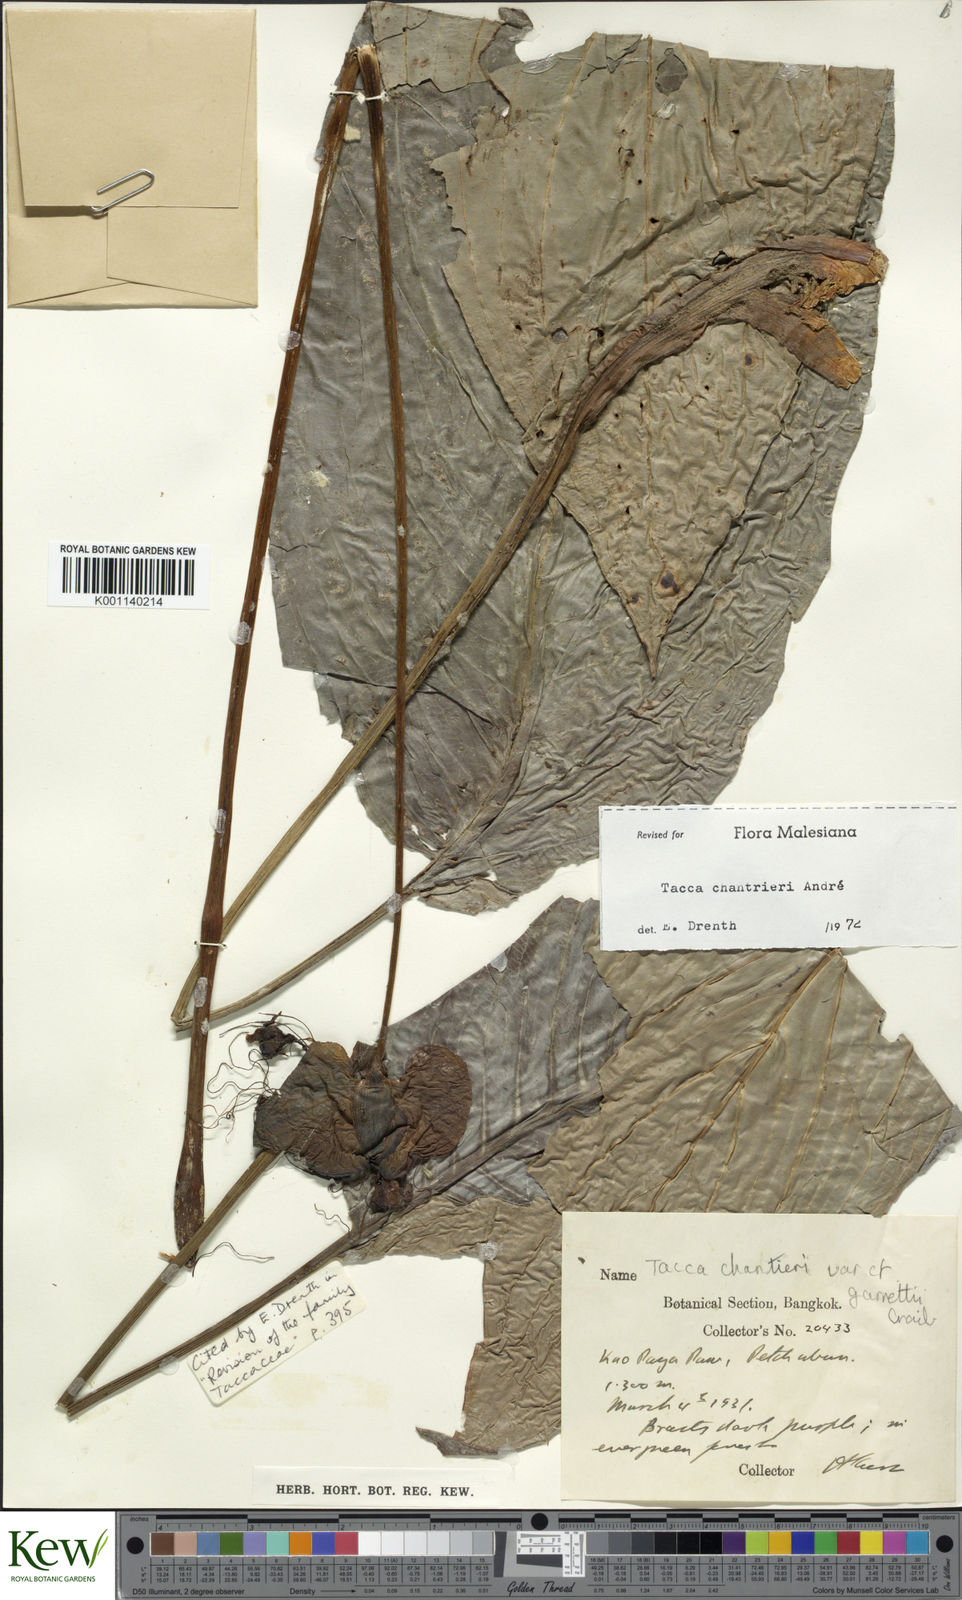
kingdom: Plantae
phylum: Tracheophyta
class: Liliopsida
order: Dioscoreales
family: Dioscoreaceae
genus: Tacca
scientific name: Tacca
